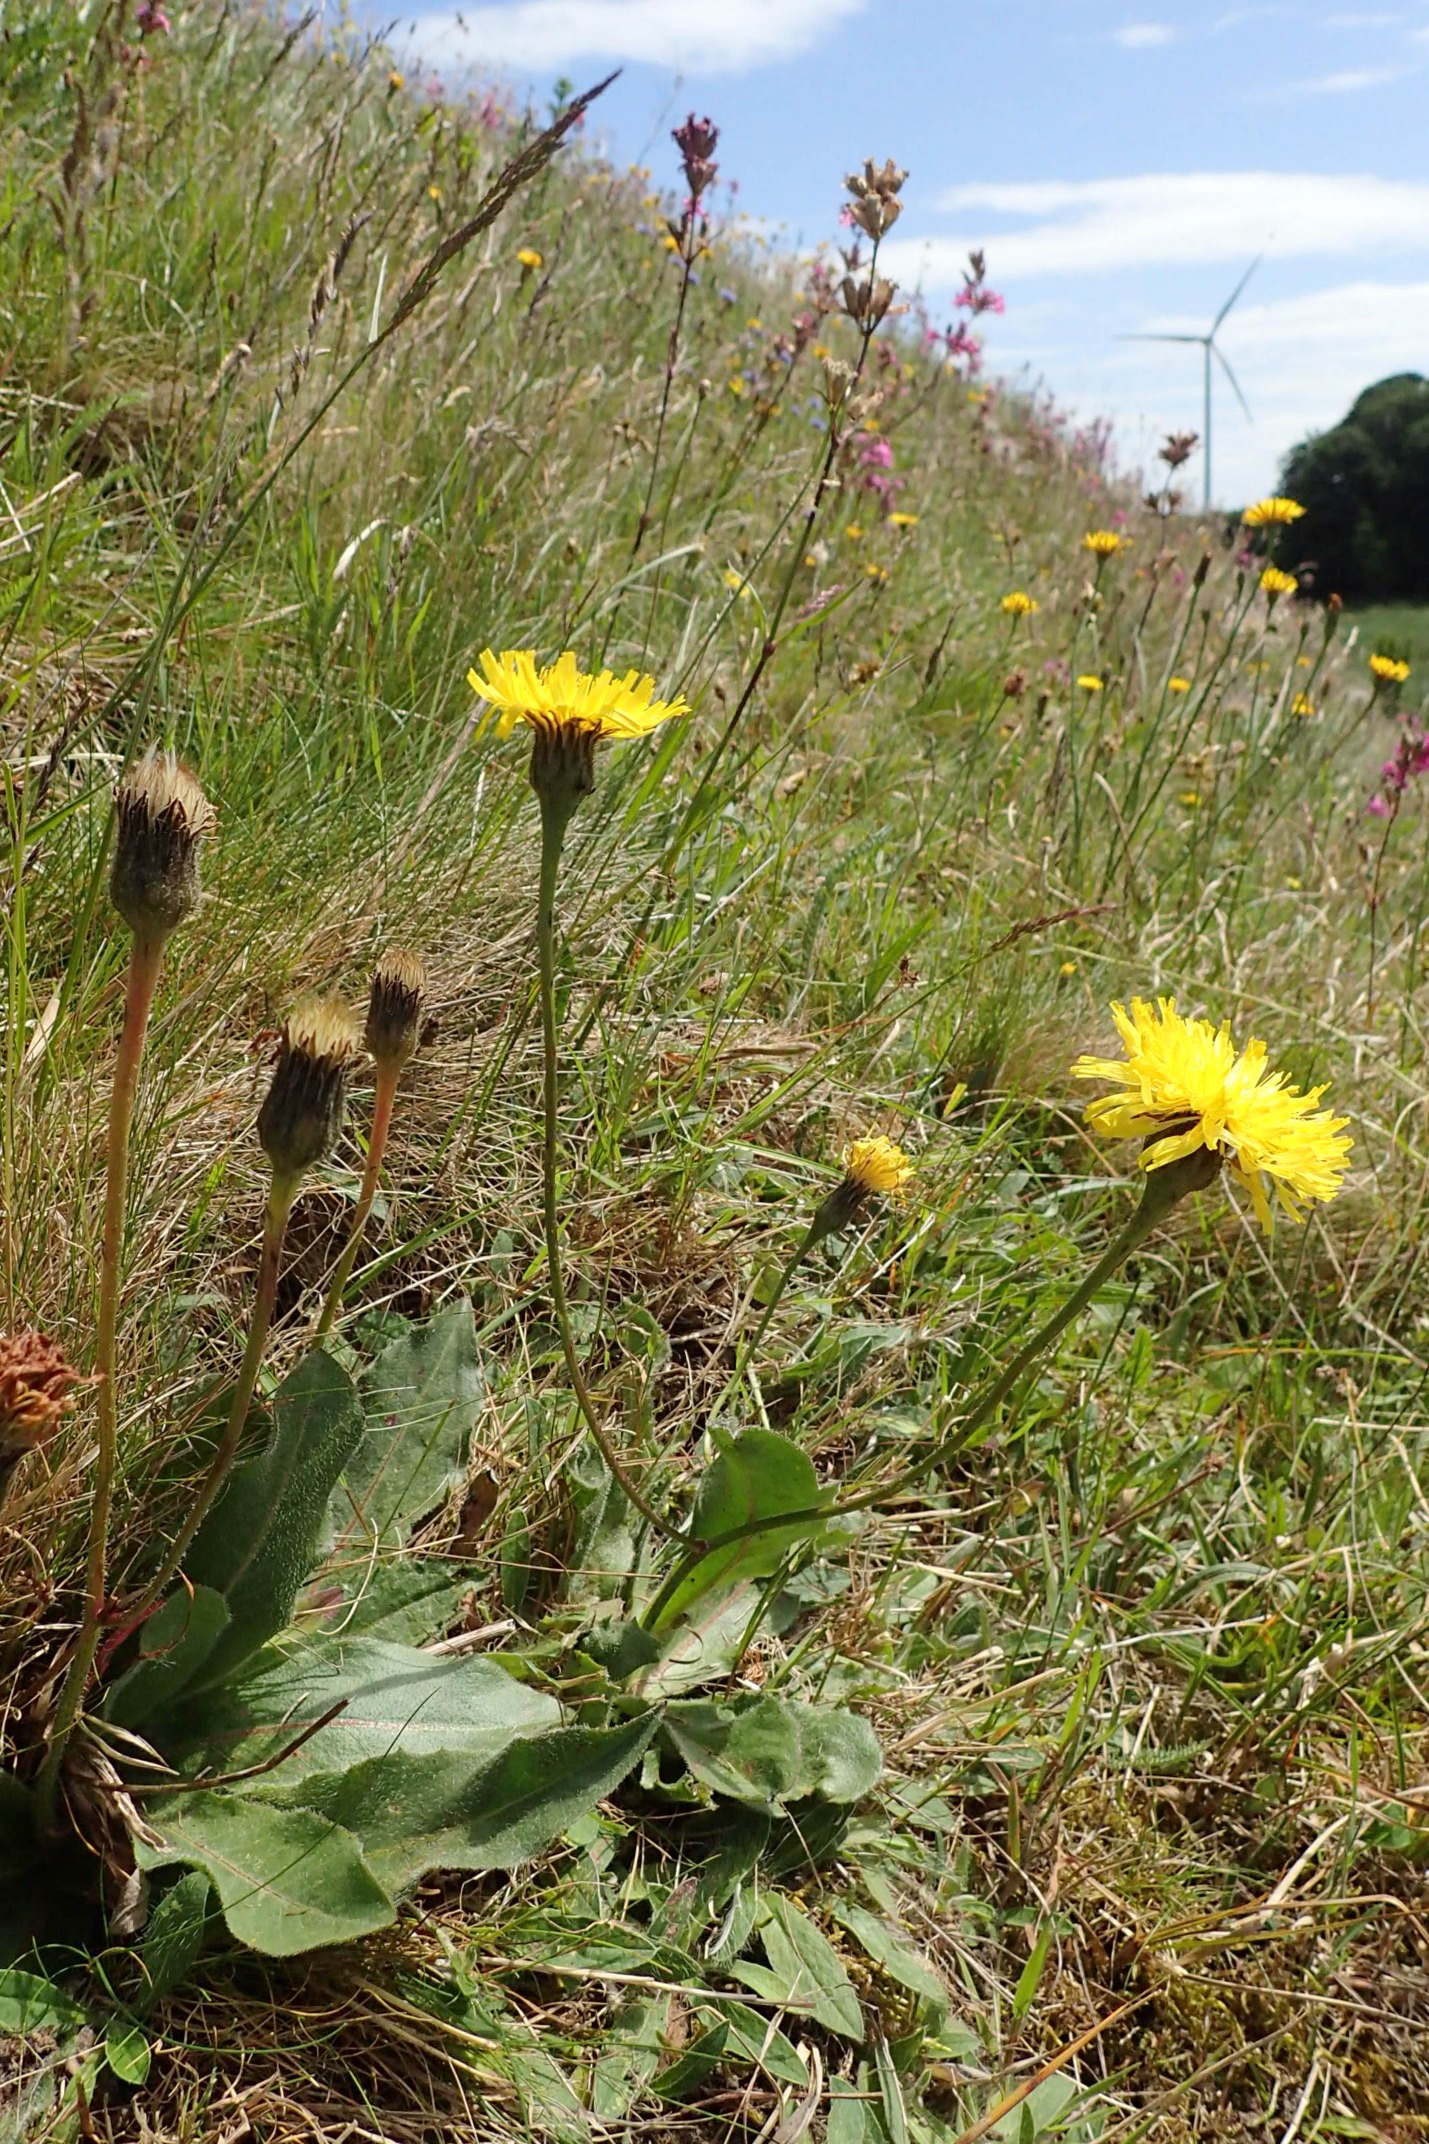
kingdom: Plantae
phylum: Tracheophyta
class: Magnoliopsida
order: Asterales
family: Asteraceae
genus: Trommsdorffia
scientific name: Trommsdorffia maculata
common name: Plettet kongepen
